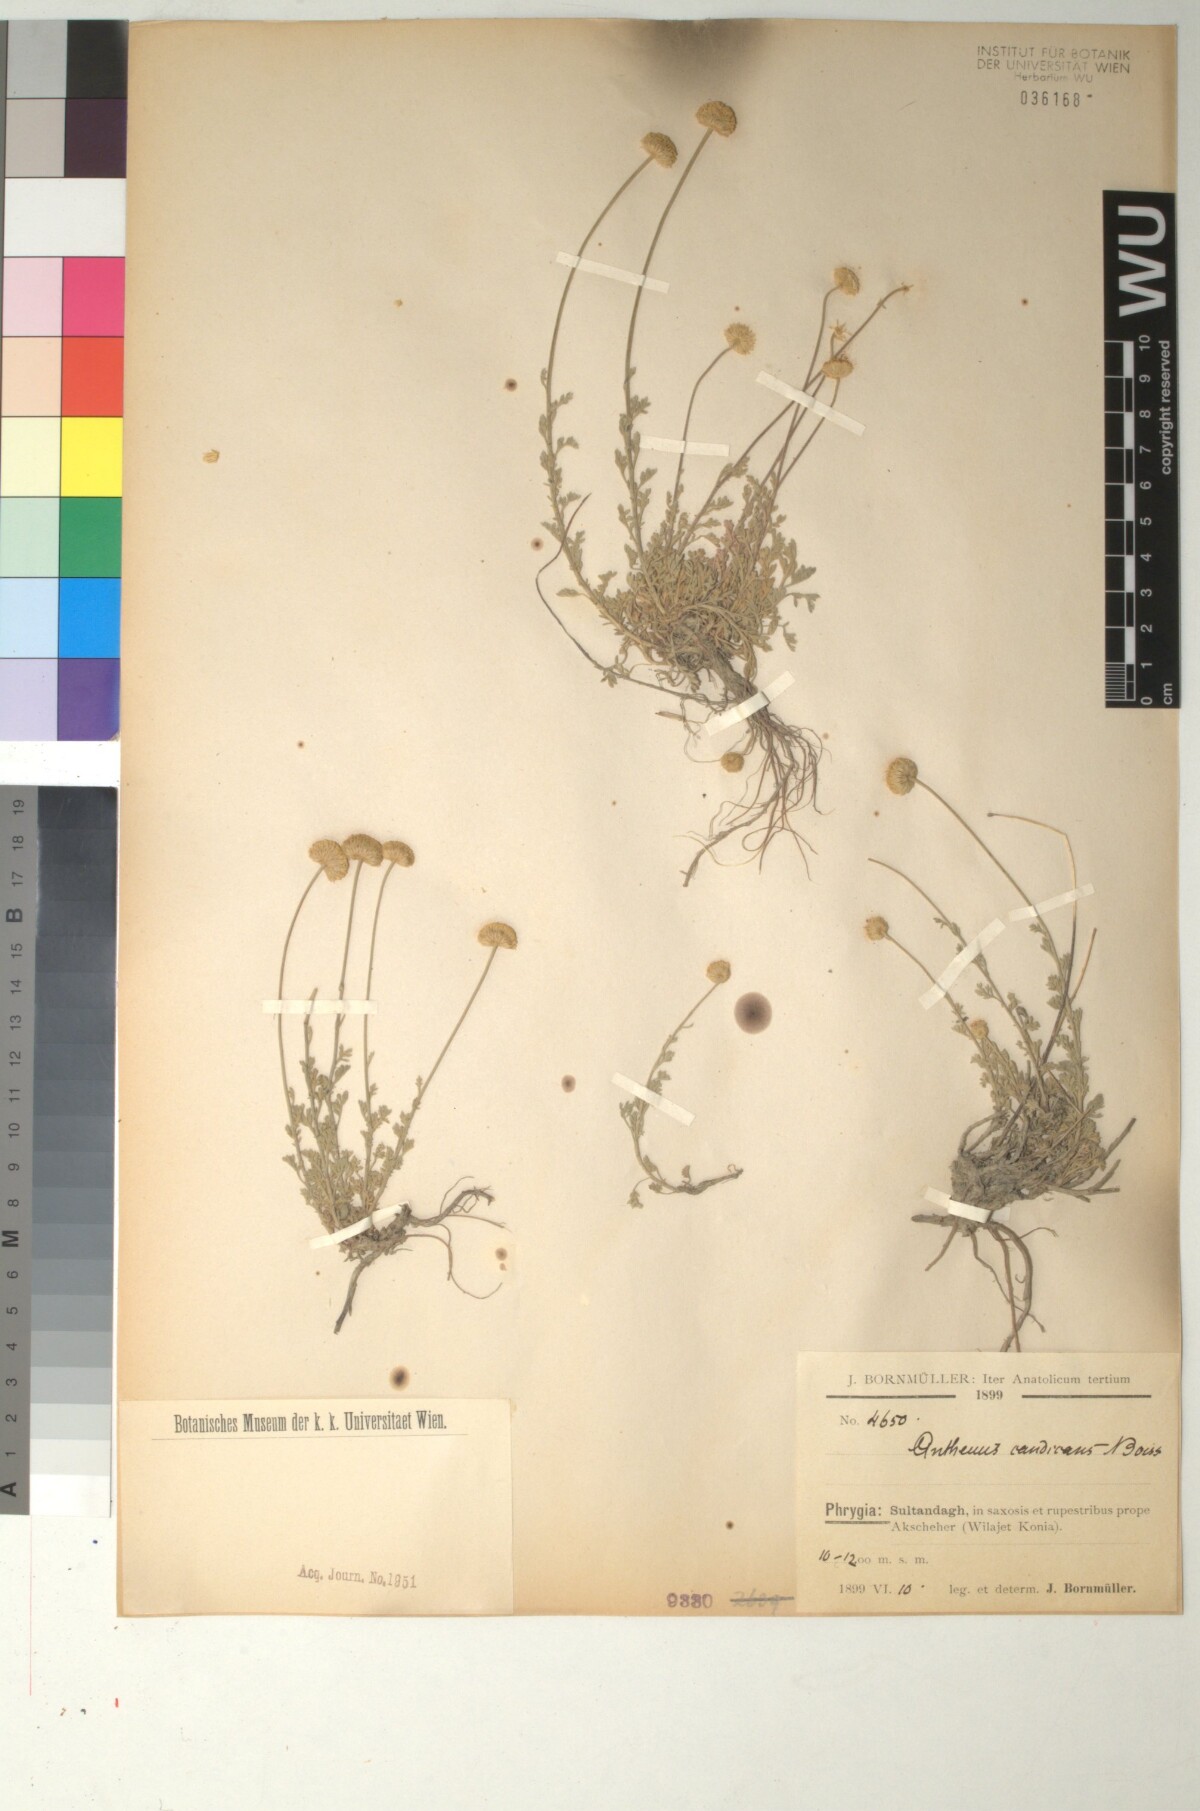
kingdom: Plantae
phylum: Tracheophyta
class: Magnoliopsida
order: Asterales
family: Asteraceae
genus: Anthemis
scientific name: Anthemis cretica
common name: Mountain dog-daisy
